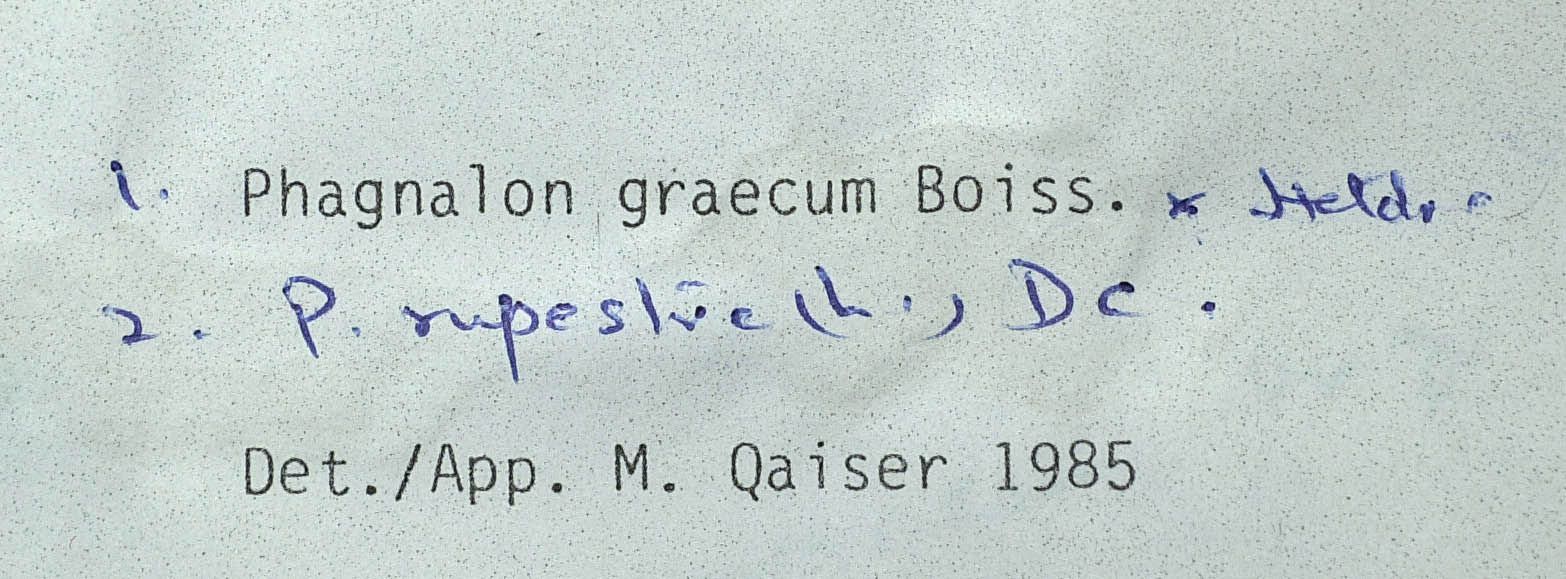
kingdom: Plantae
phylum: Tracheophyta
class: Magnoliopsida
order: Asterales
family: Asteraceae
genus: Phagnalon
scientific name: Phagnalon saxatile
